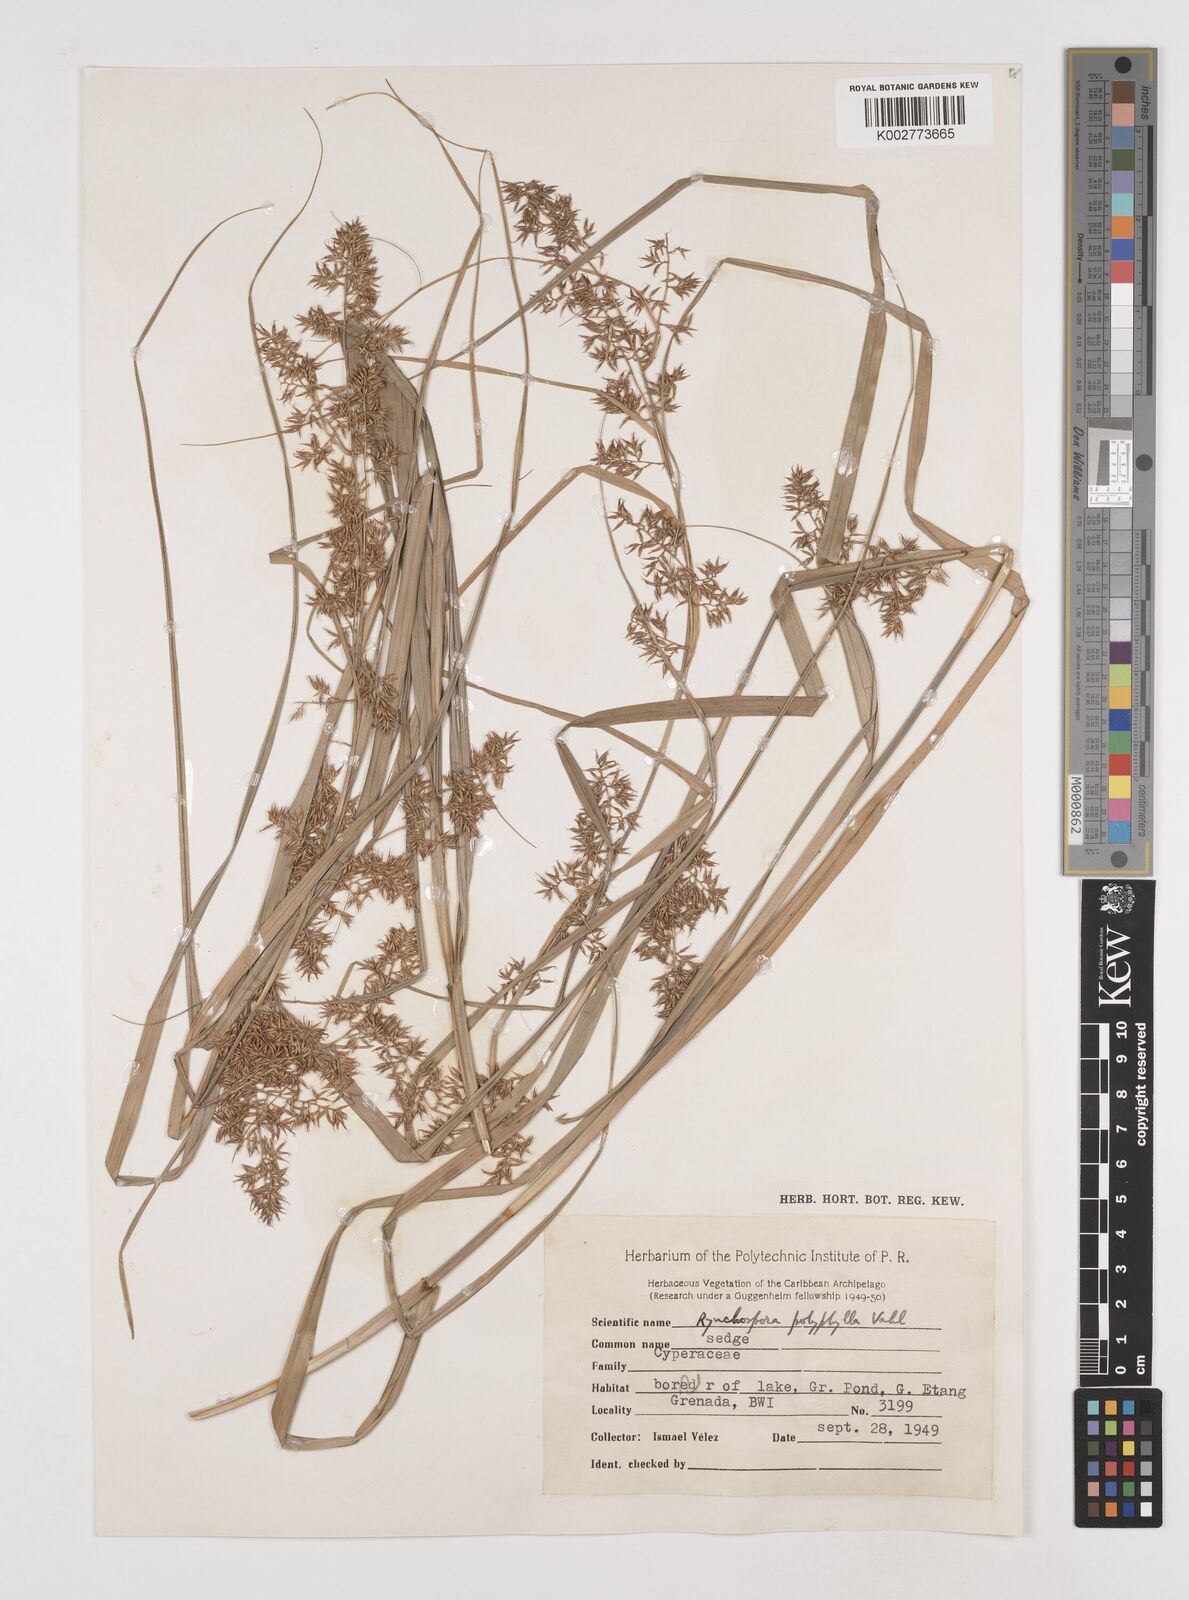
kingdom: Plantae
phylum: Tracheophyta
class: Liliopsida
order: Poales
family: Cyperaceae
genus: Rhynchospora
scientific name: Rhynchospora polyphylla
